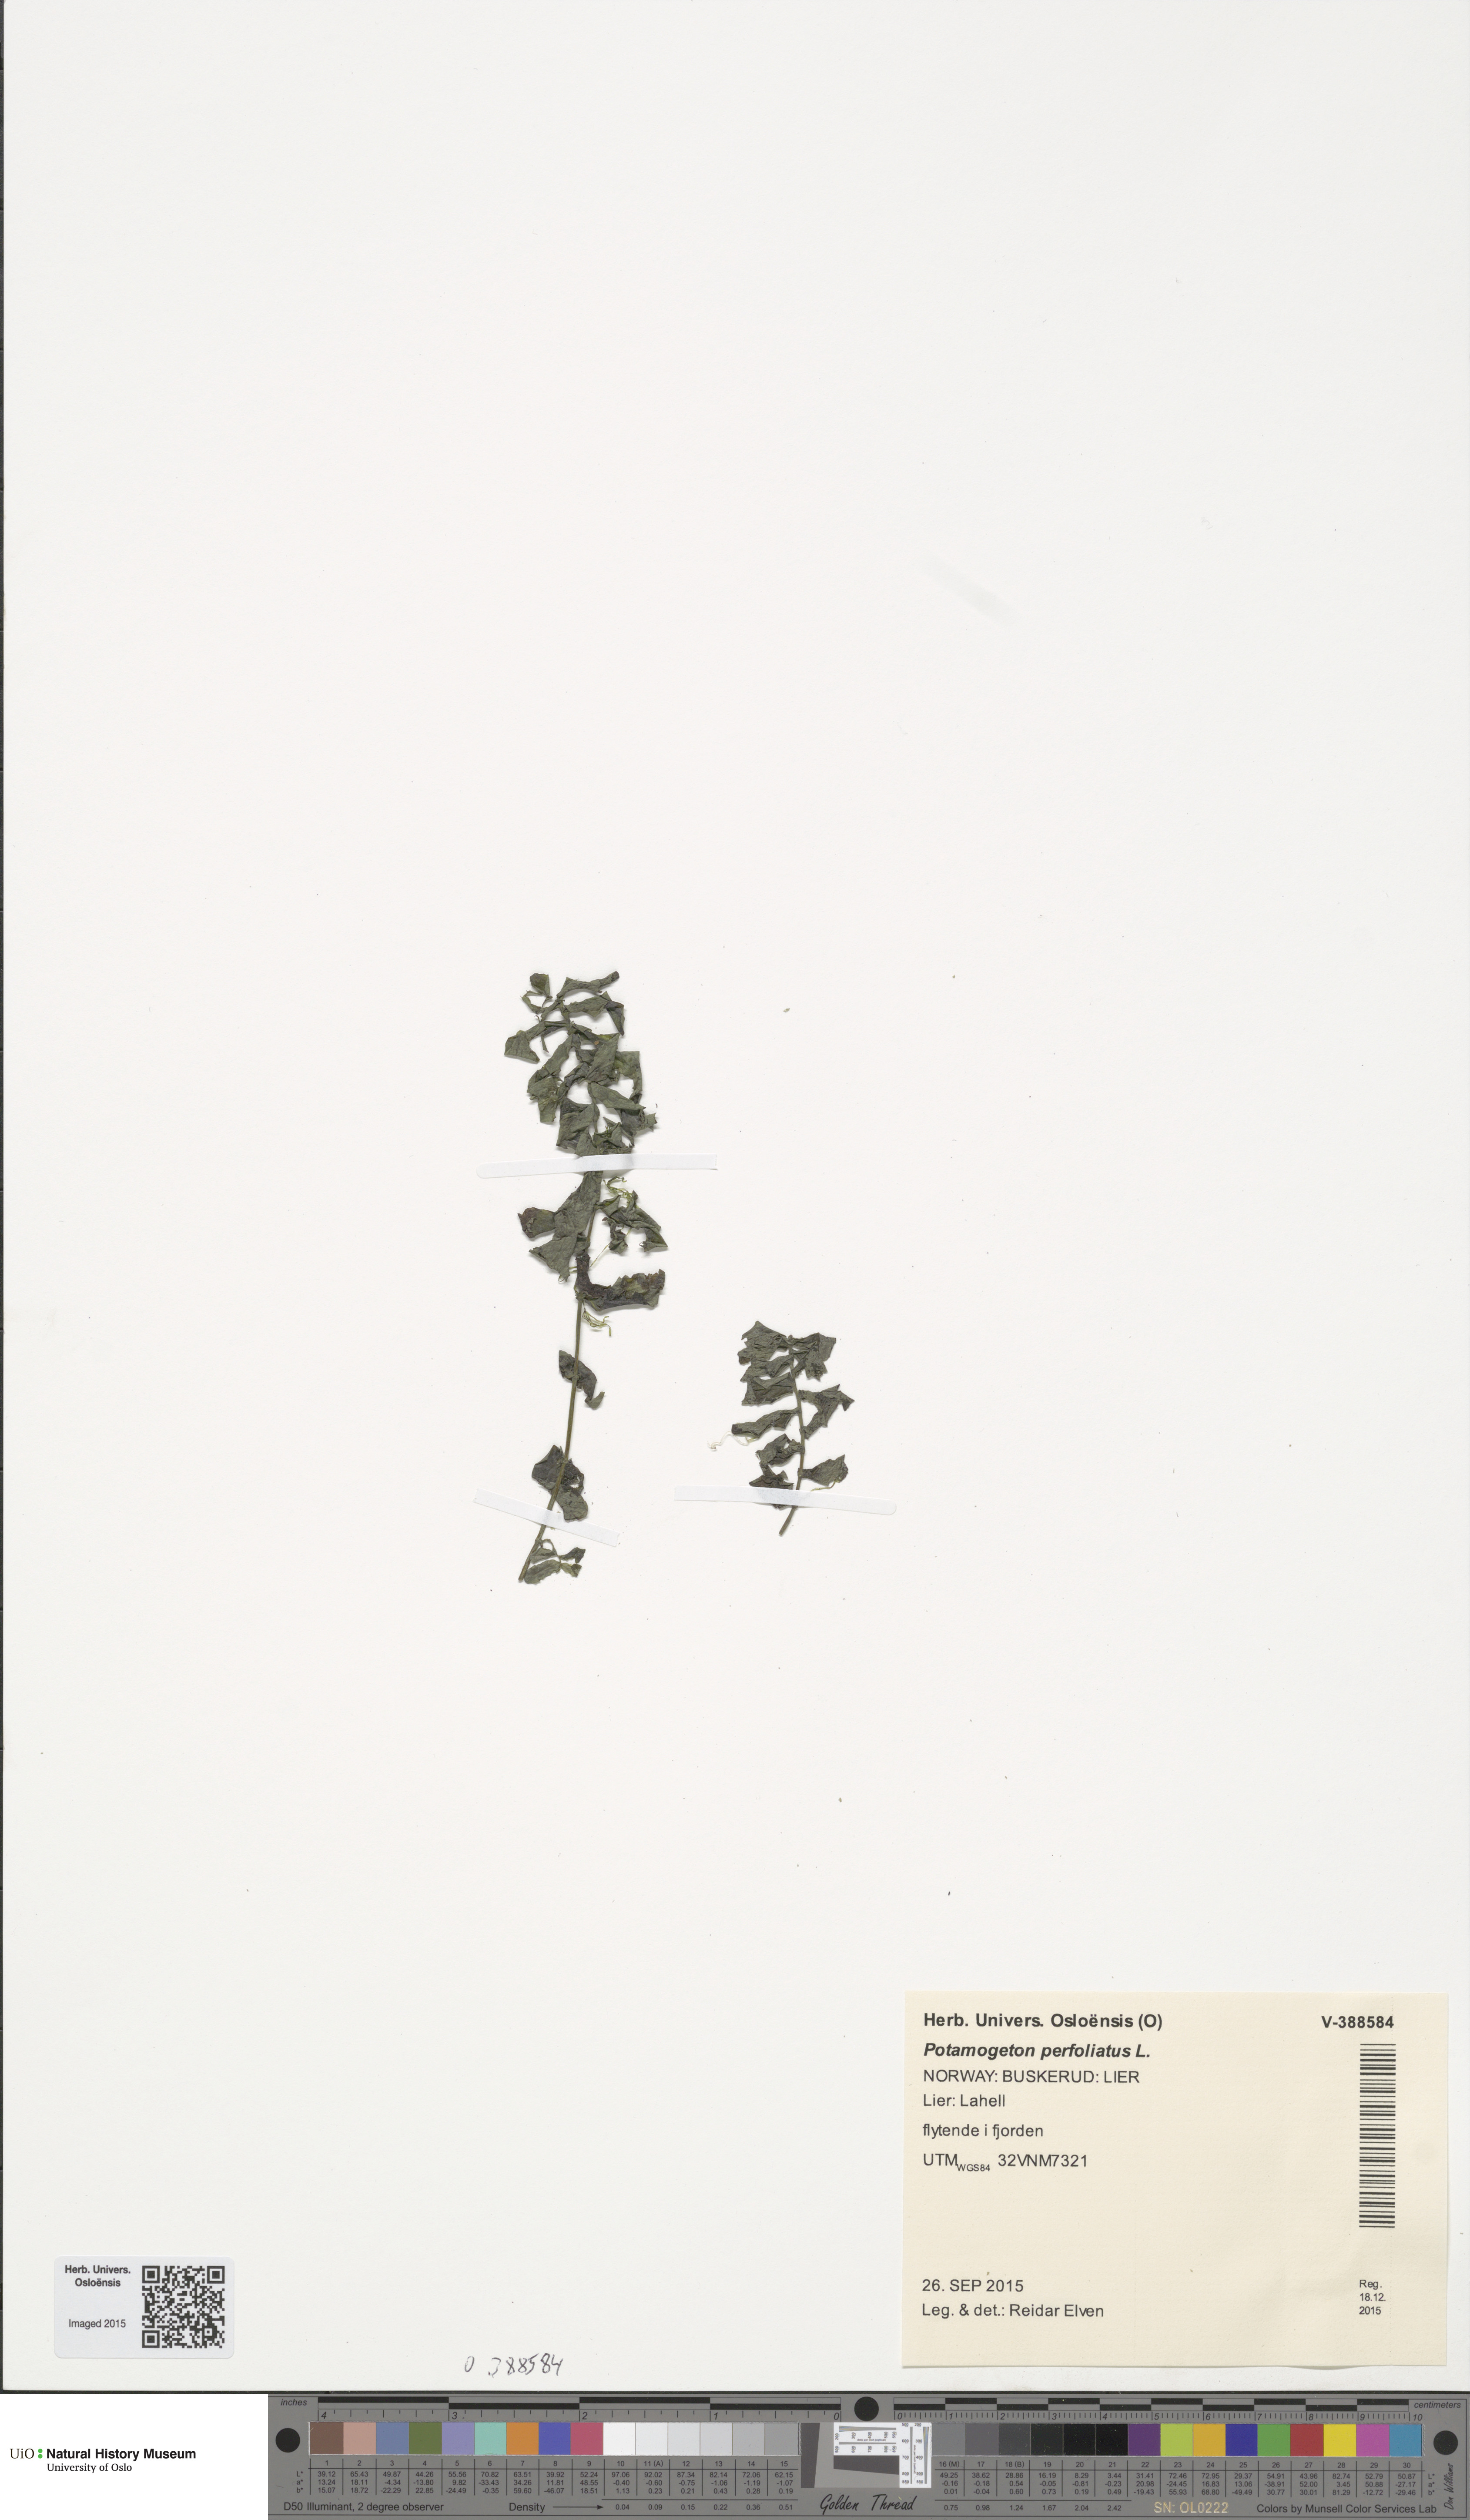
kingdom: Plantae
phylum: Tracheophyta
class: Liliopsida
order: Alismatales
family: Potamogetonaceae
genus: Potamogeton
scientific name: Potamogeton perfoliatus
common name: Perfoliate pondweed
